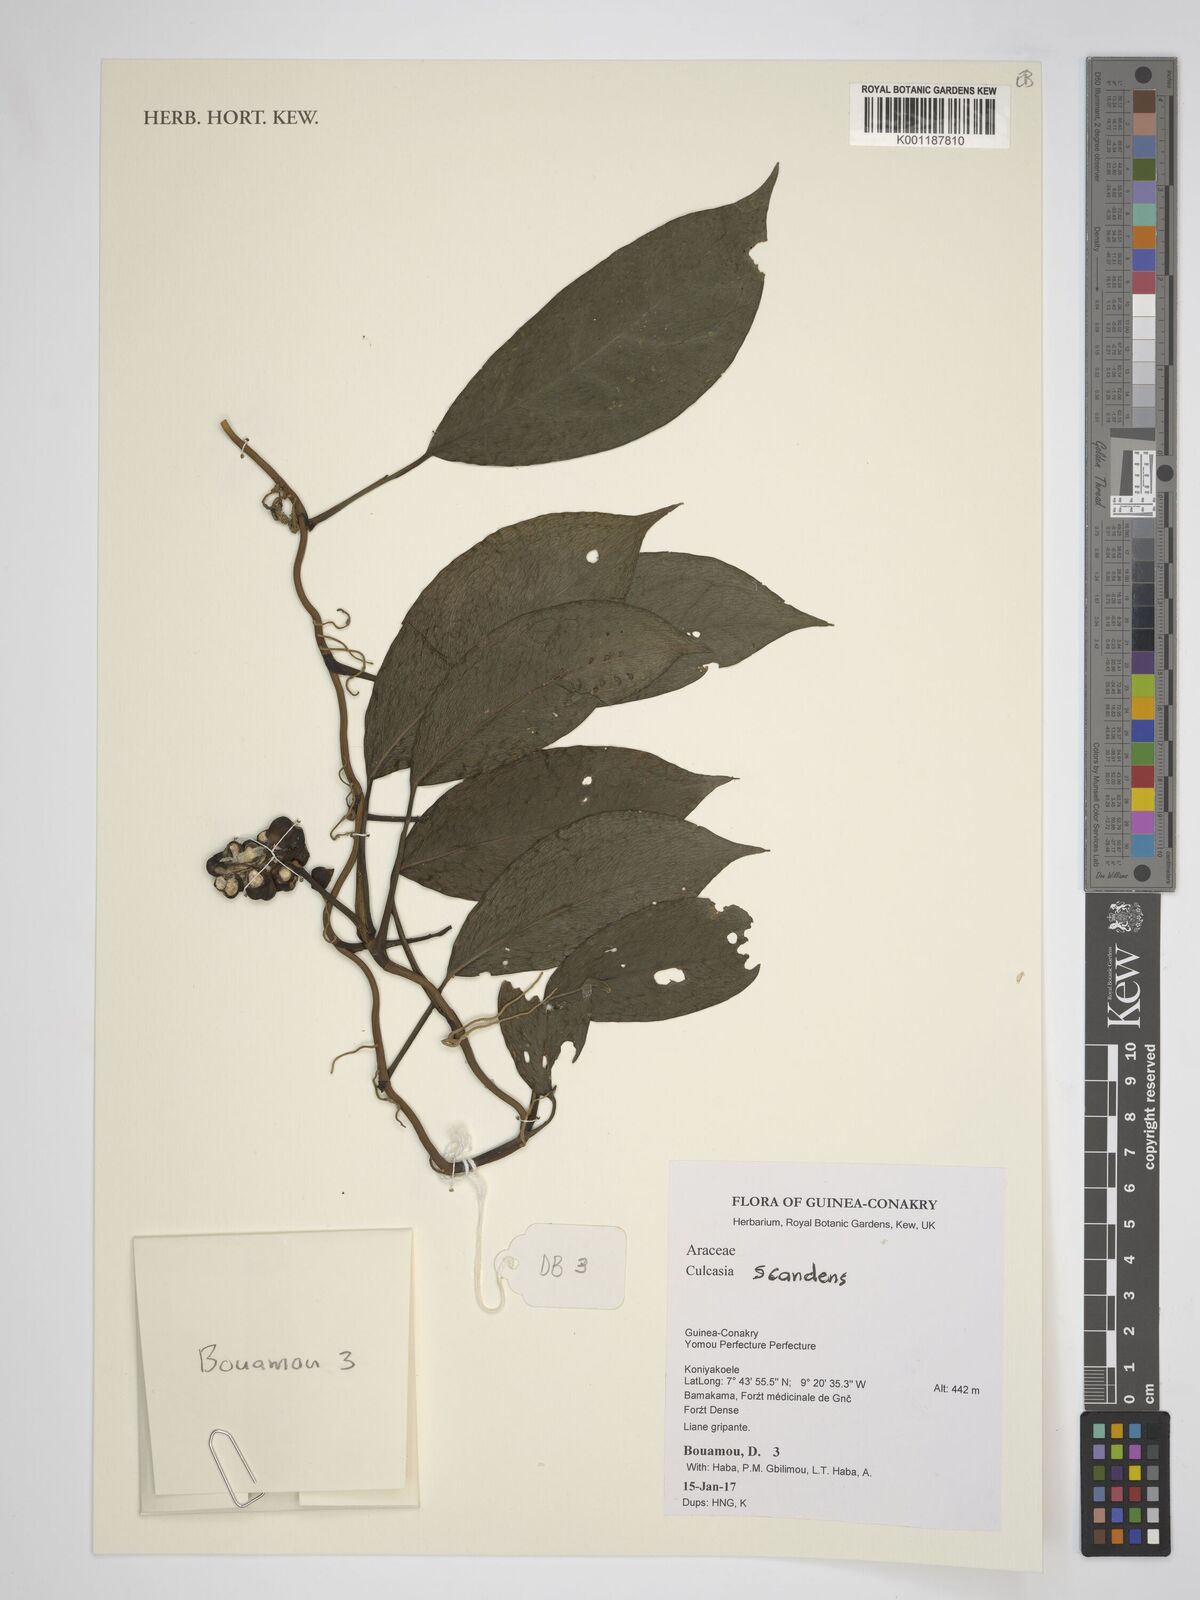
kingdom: Plantae
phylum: Tracheophyta
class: Liliopsida
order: Alismatales
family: Araceae
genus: Culcasia
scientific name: Culcasia scandens
